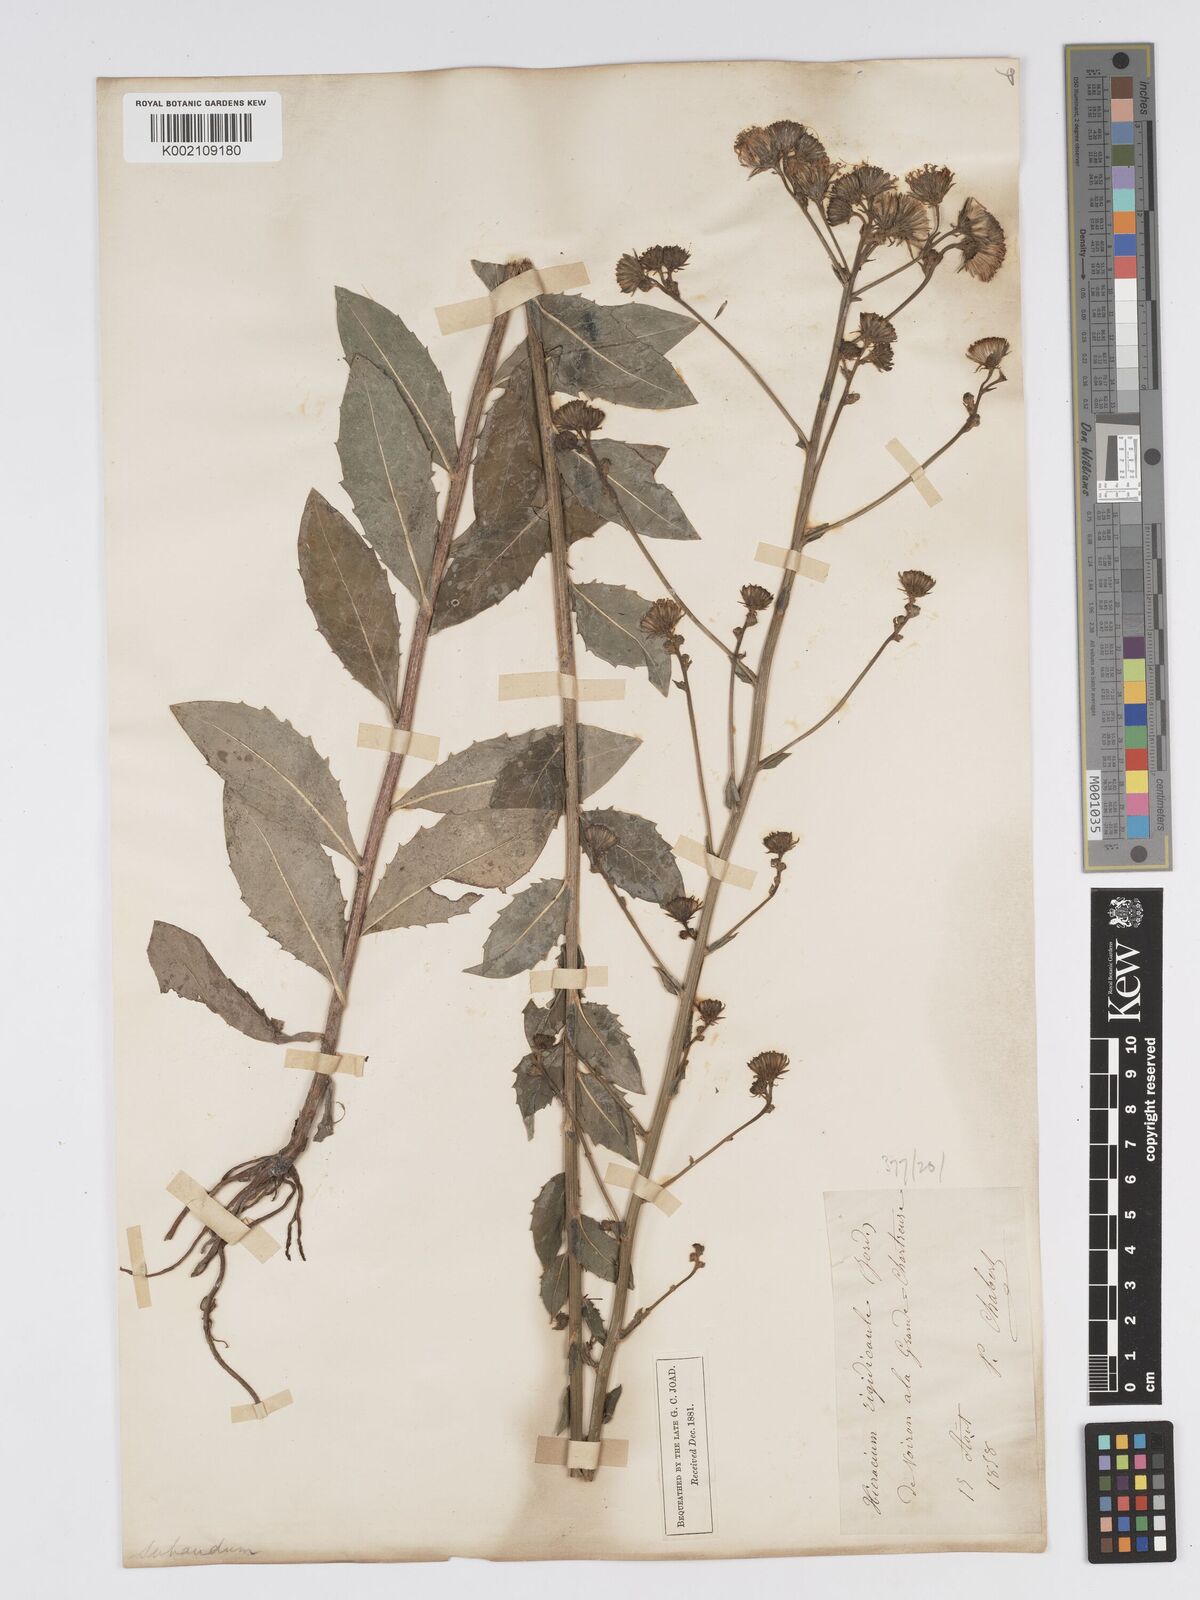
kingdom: Plantae
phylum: Tracheophyta
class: Magnoliopsida
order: Asterales
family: Asteraceae
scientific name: Asteraceae
